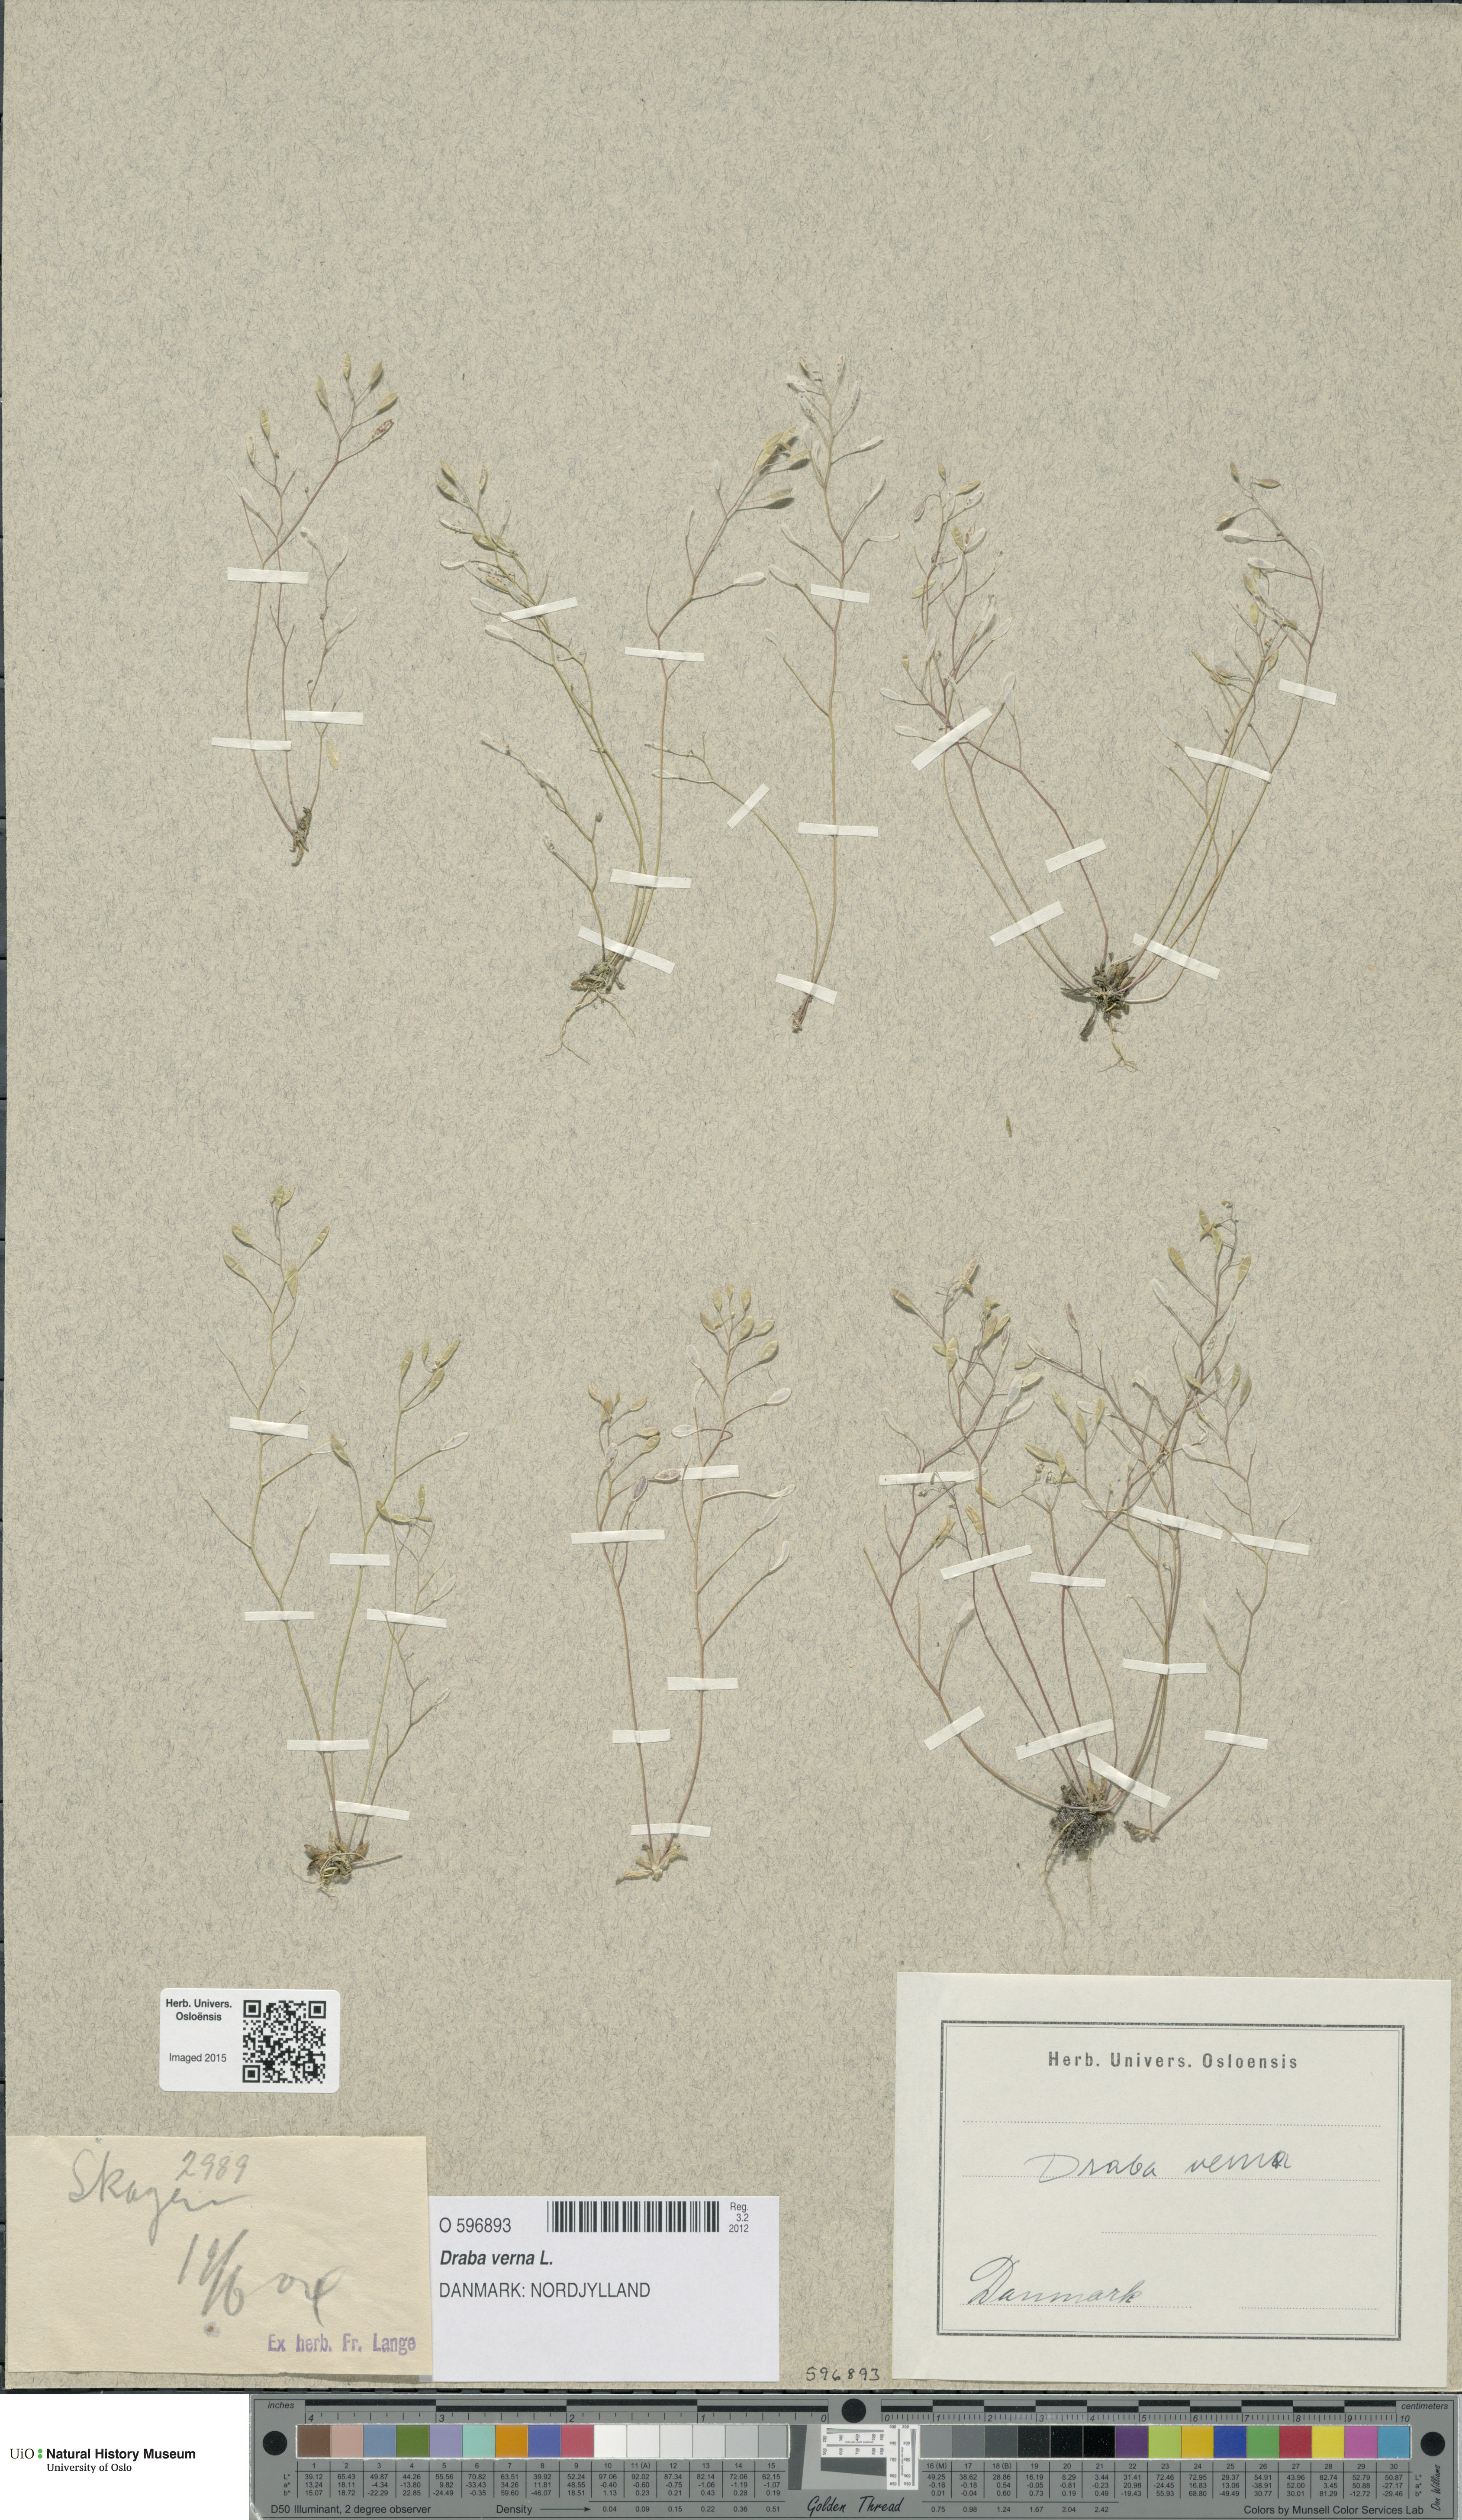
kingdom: Plantae
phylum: Tracheophyta
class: Magnoliopsida
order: Brassicales
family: Brassicaceae
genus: Draba
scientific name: Draba verna
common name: Spring draba
